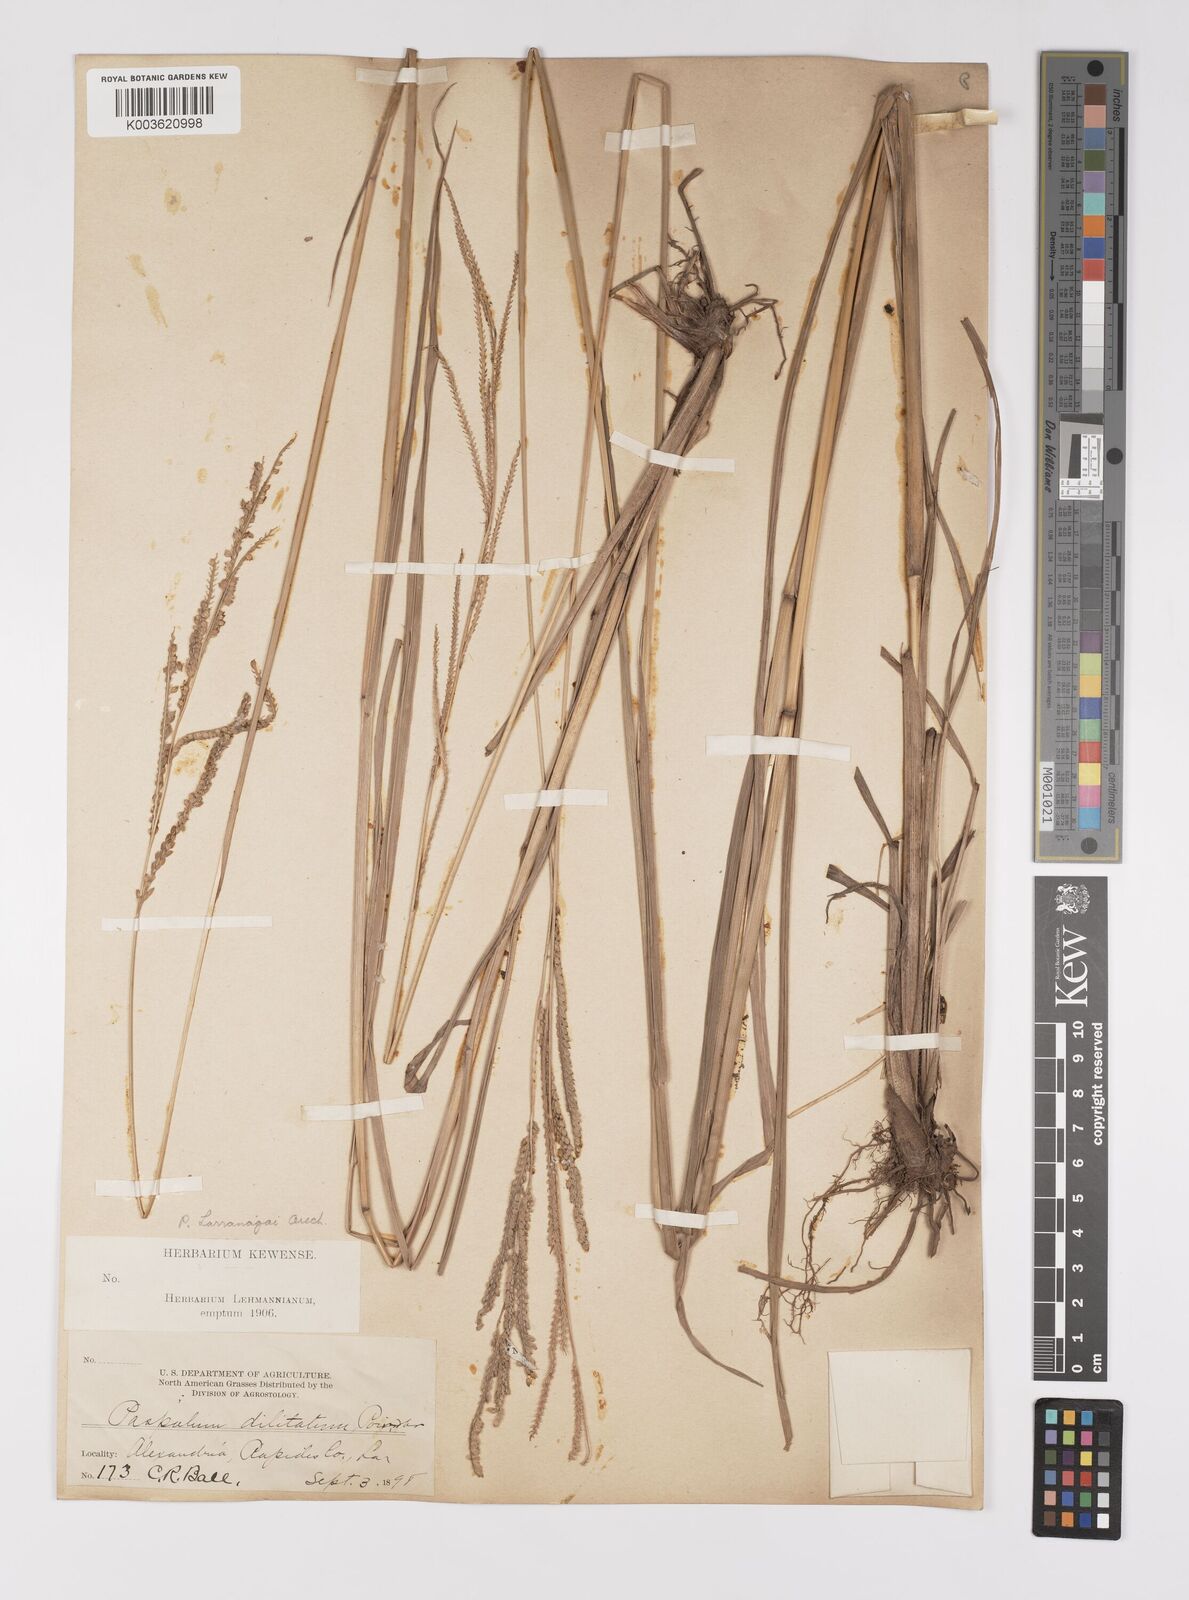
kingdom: Plantae
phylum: Tracheophyta
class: Liliopsida
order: Poales
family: Poaceae
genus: Paspalum
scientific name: Paspalum urvillei
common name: Vasey's grass
